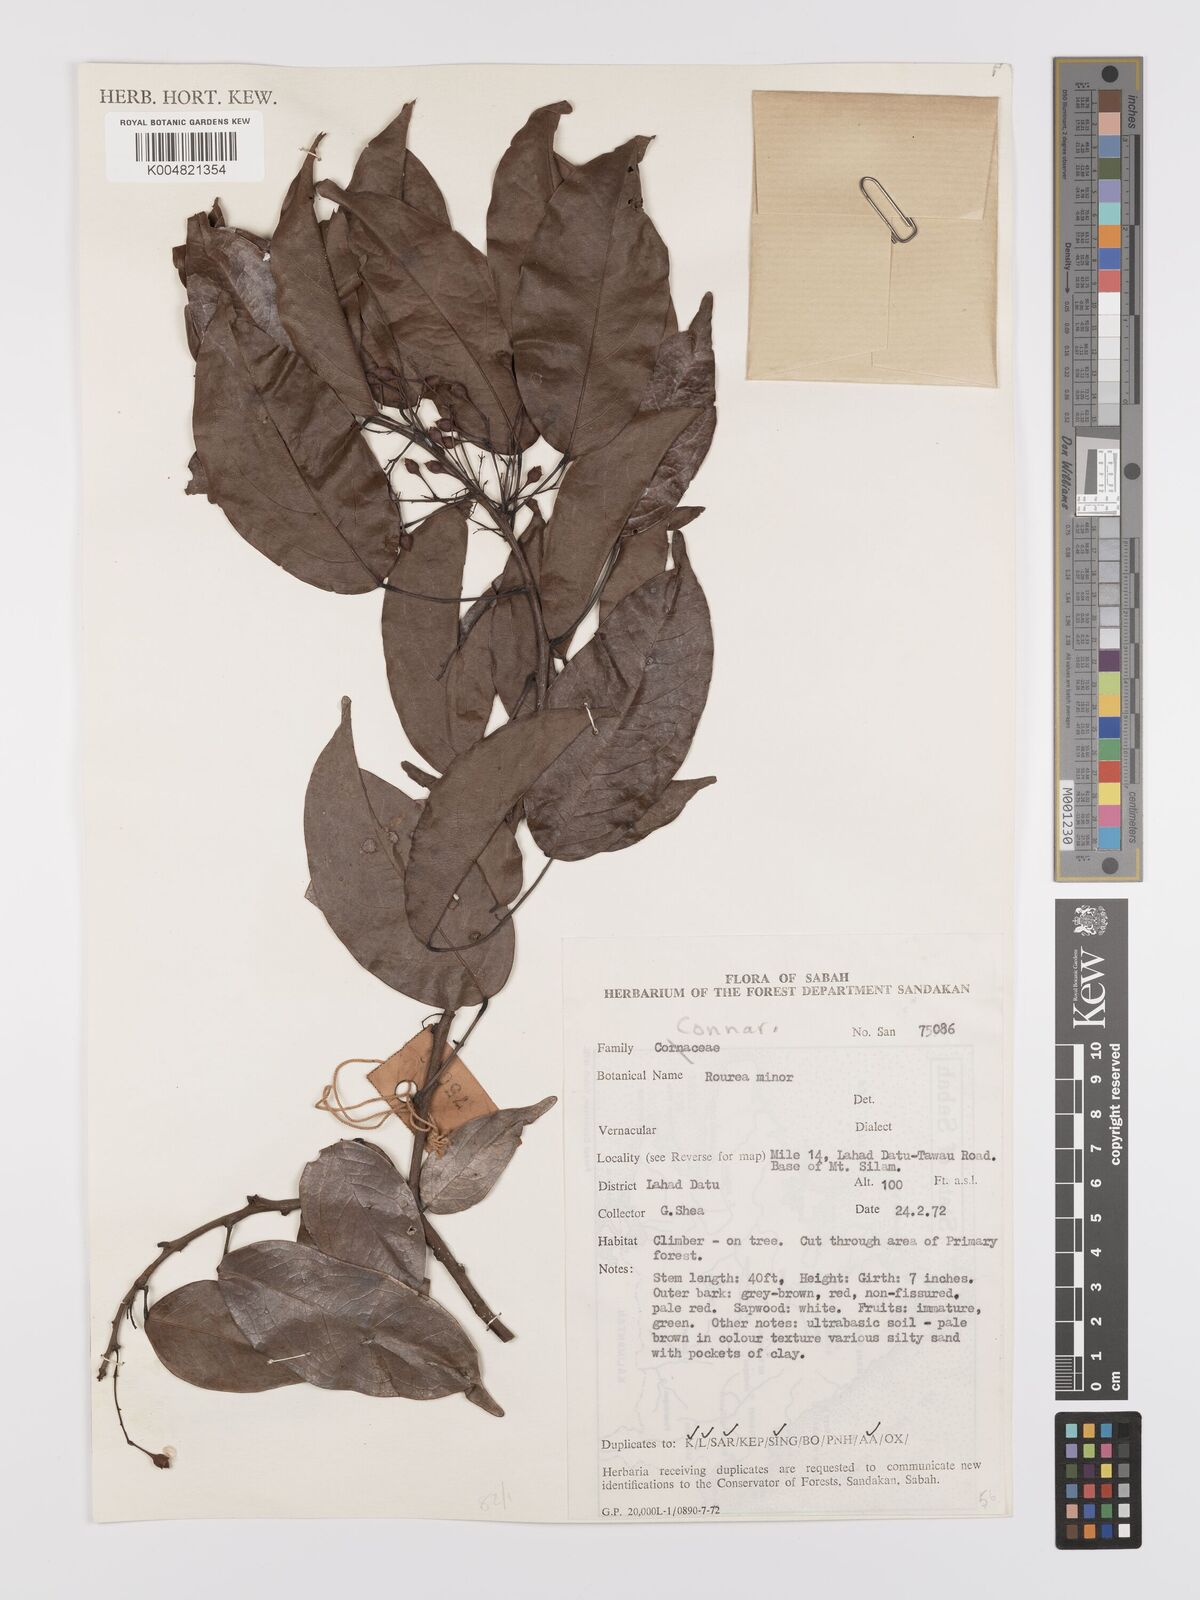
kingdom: Plantae
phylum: Tracheophyta
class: Magnoliopsida
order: Oxalidales
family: Connaraceae
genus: Rourea
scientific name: Rourea minor
